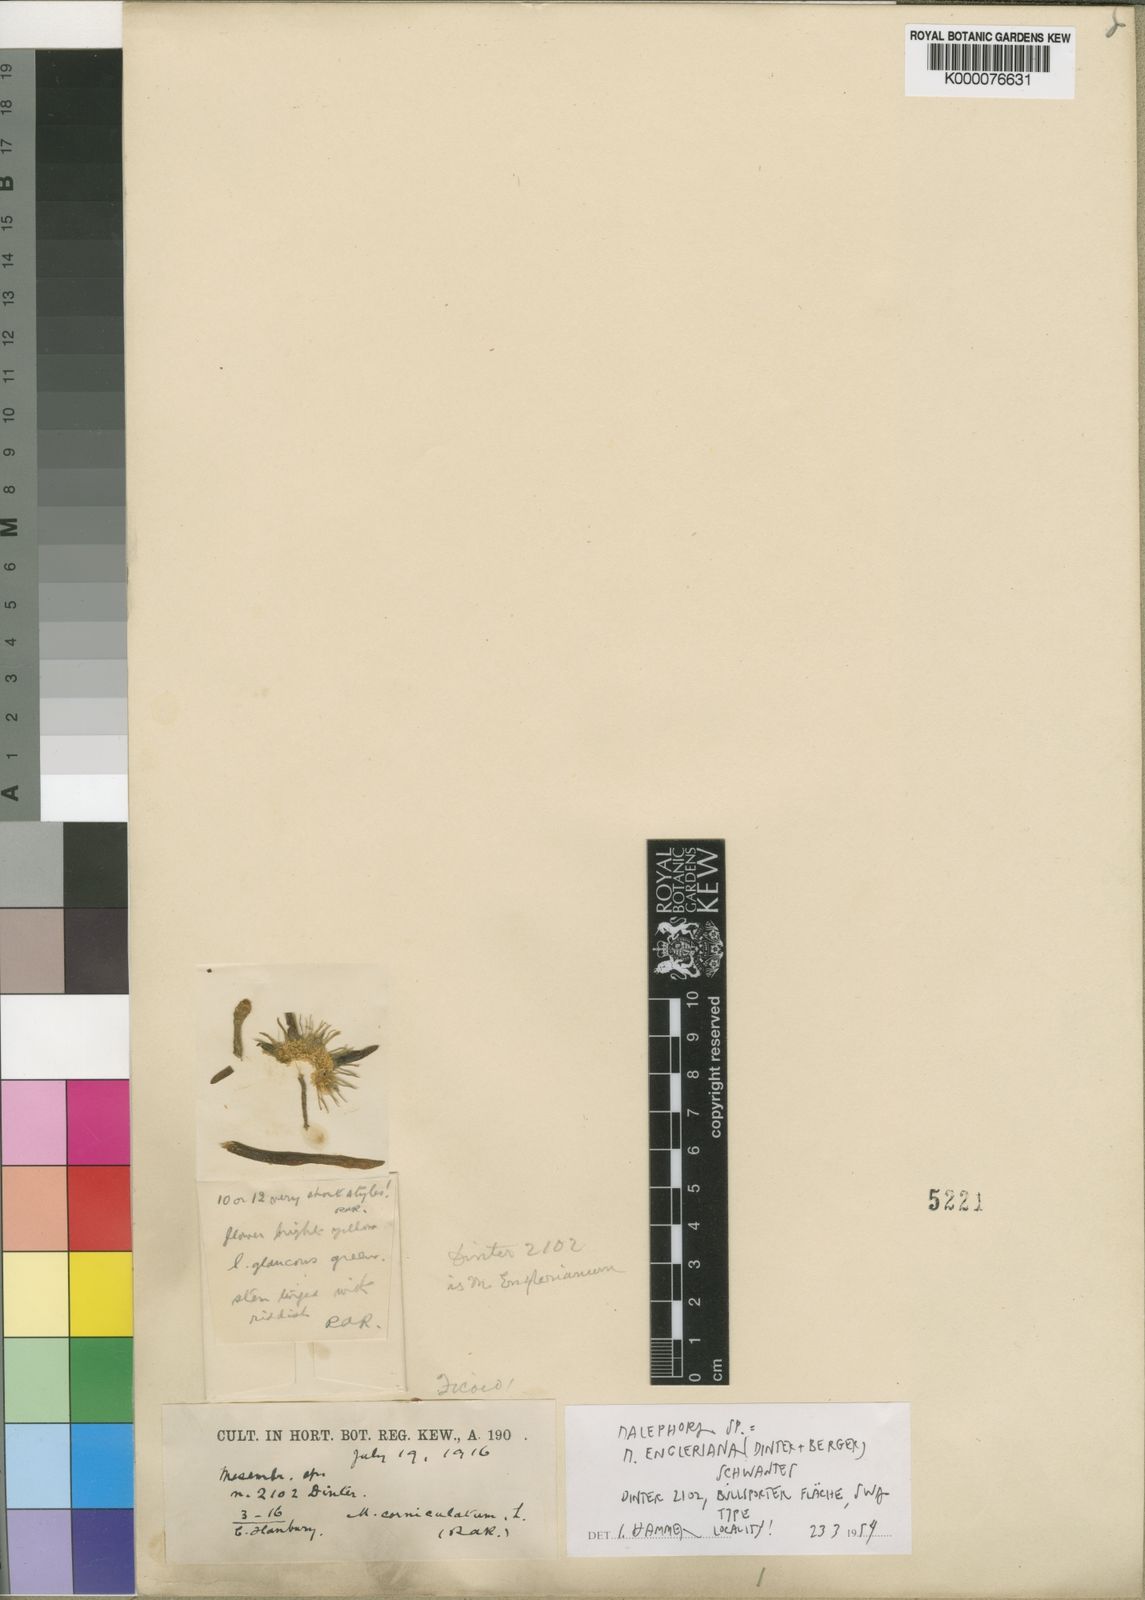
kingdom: Plantae
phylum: Tracheophyta
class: Magnoliopsida
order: Caryophyllales
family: Aizoaceae
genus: Malephora
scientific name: Malephora engleriana
